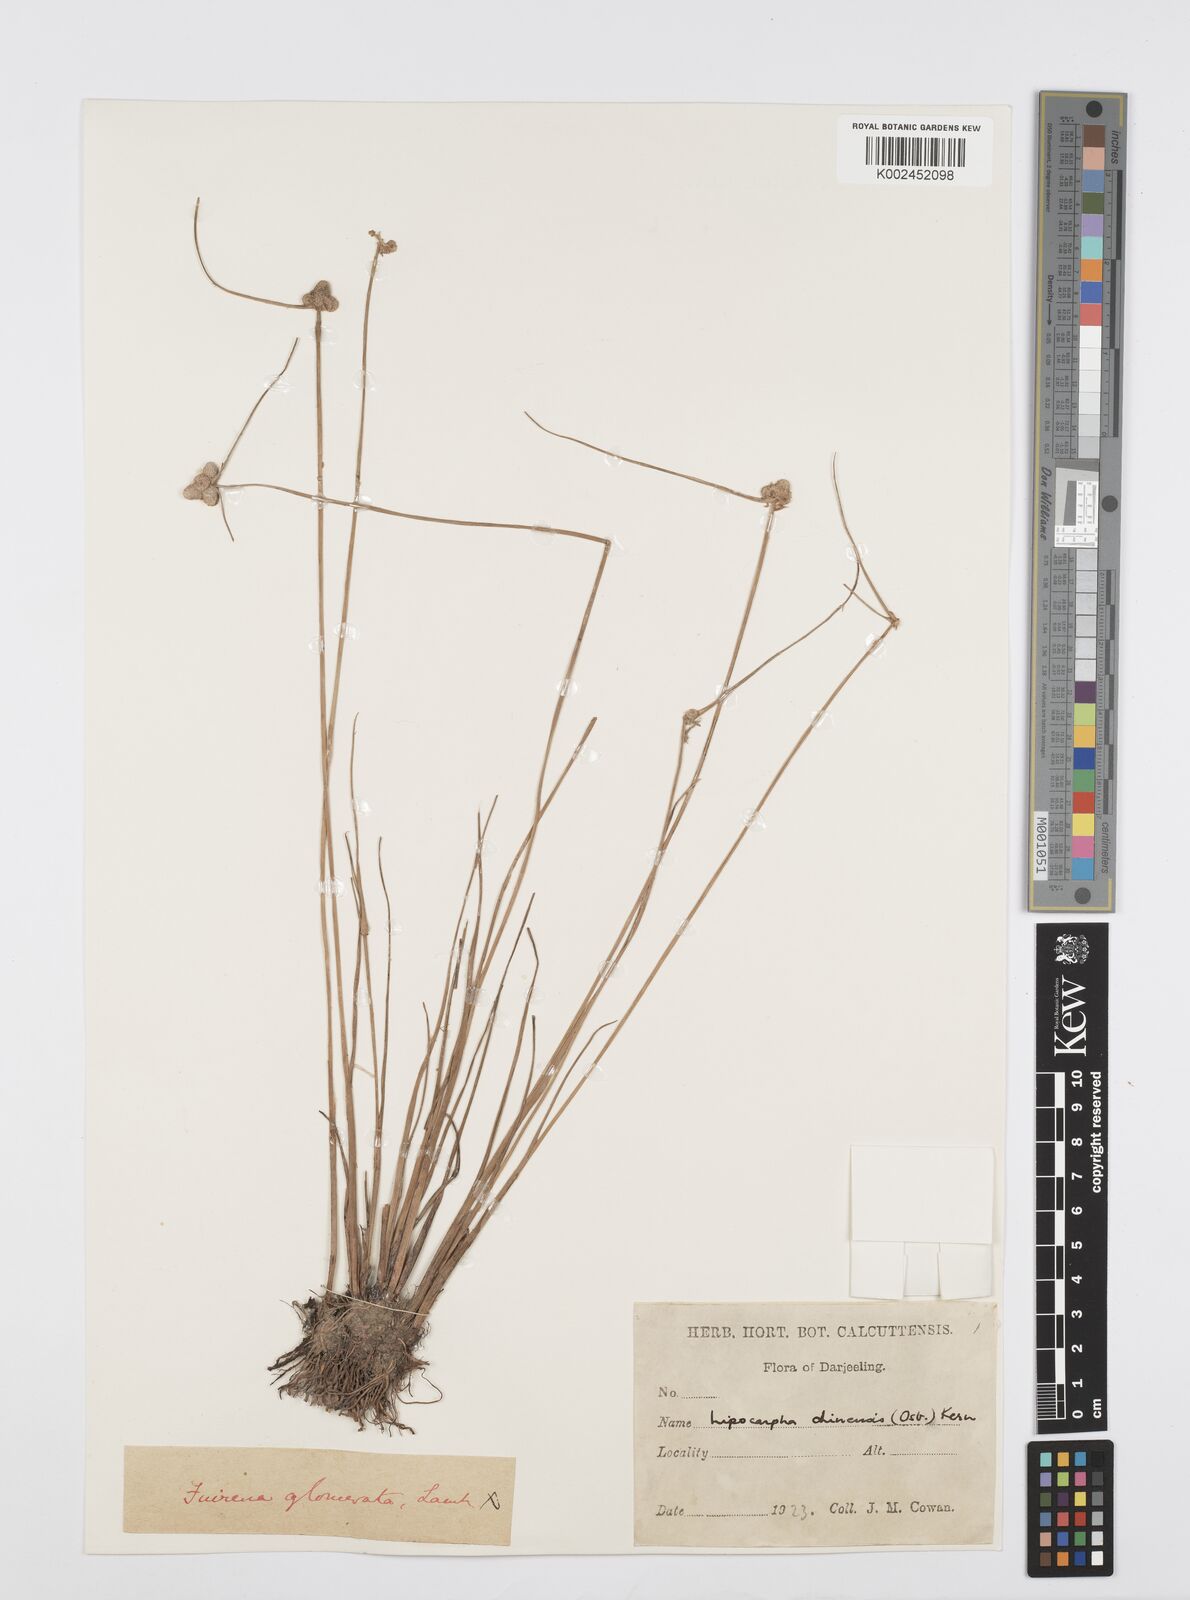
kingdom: Plantae
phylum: Tracheophyta
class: Liliopsida
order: Poales
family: Cyperaceae
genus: Cyperus
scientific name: Cyperus
